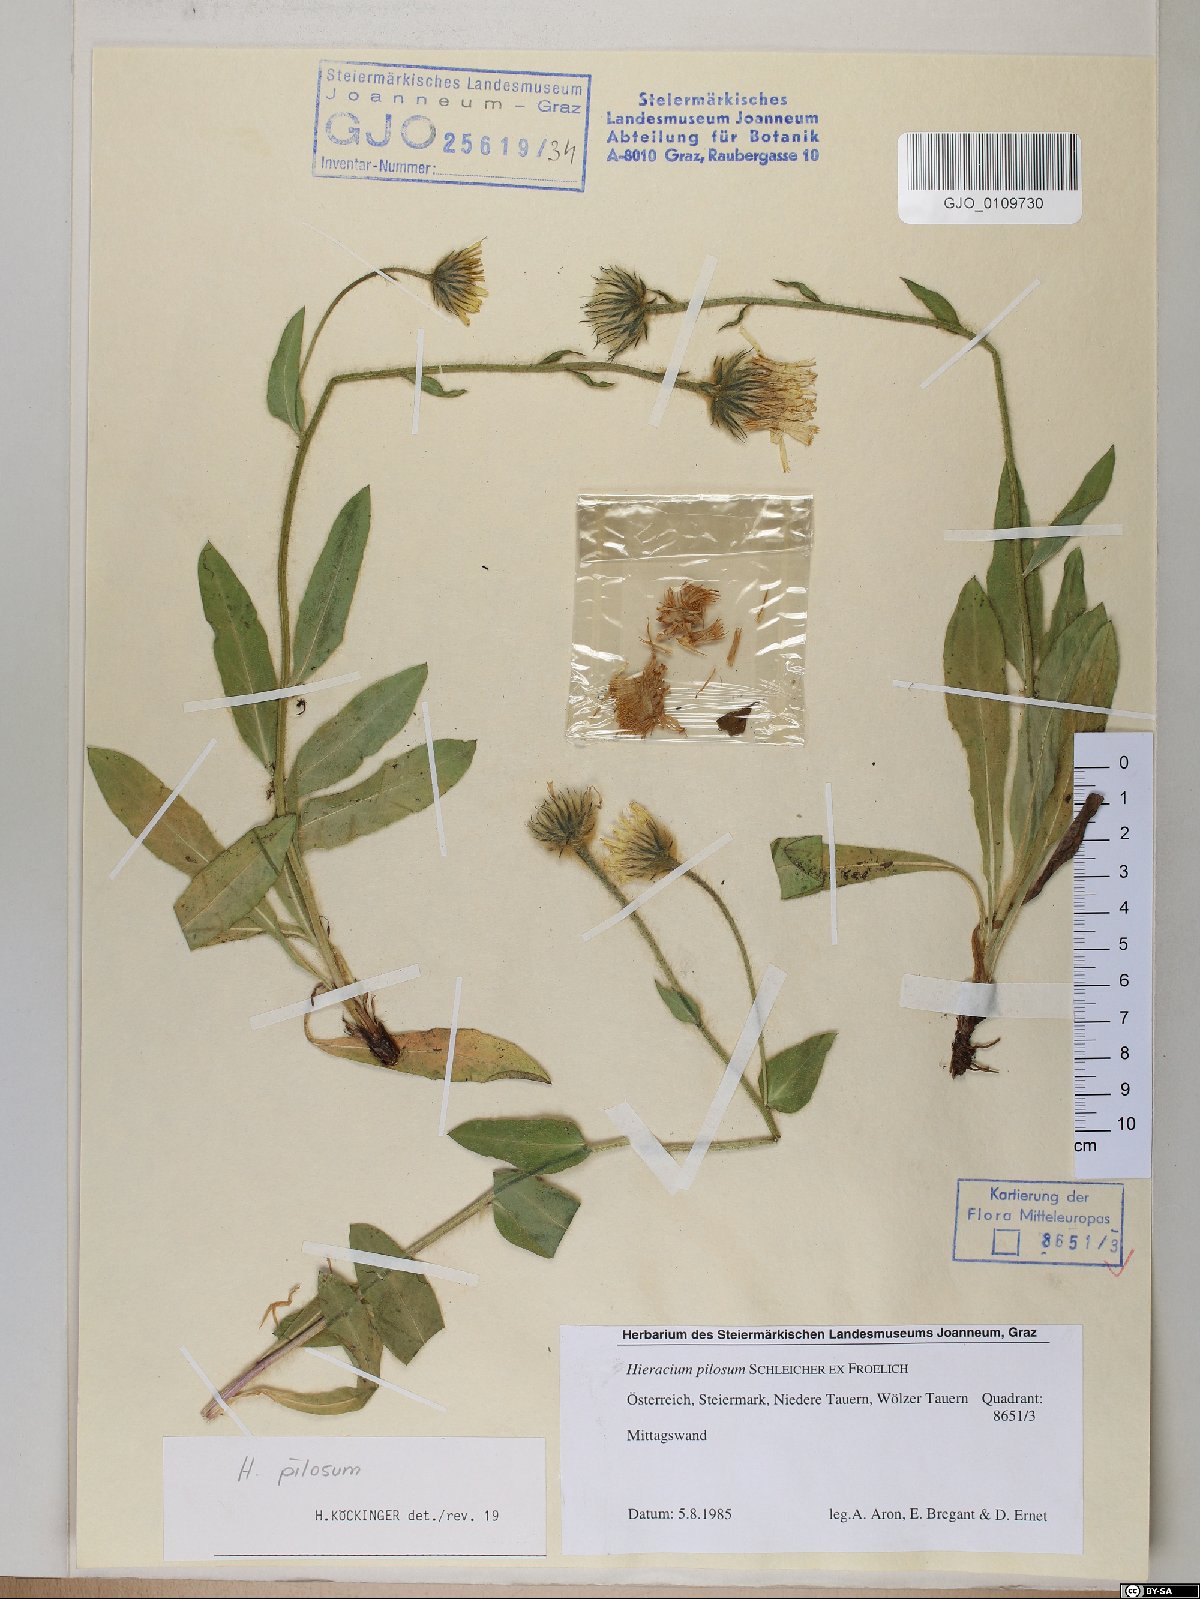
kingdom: Plantae
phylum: Tracheophyta
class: Magnoliopsida
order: Asterales
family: Asteraceae
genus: Hieracium
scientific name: Hieracium pilosum
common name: Fimbriate-pitted hawkweed
